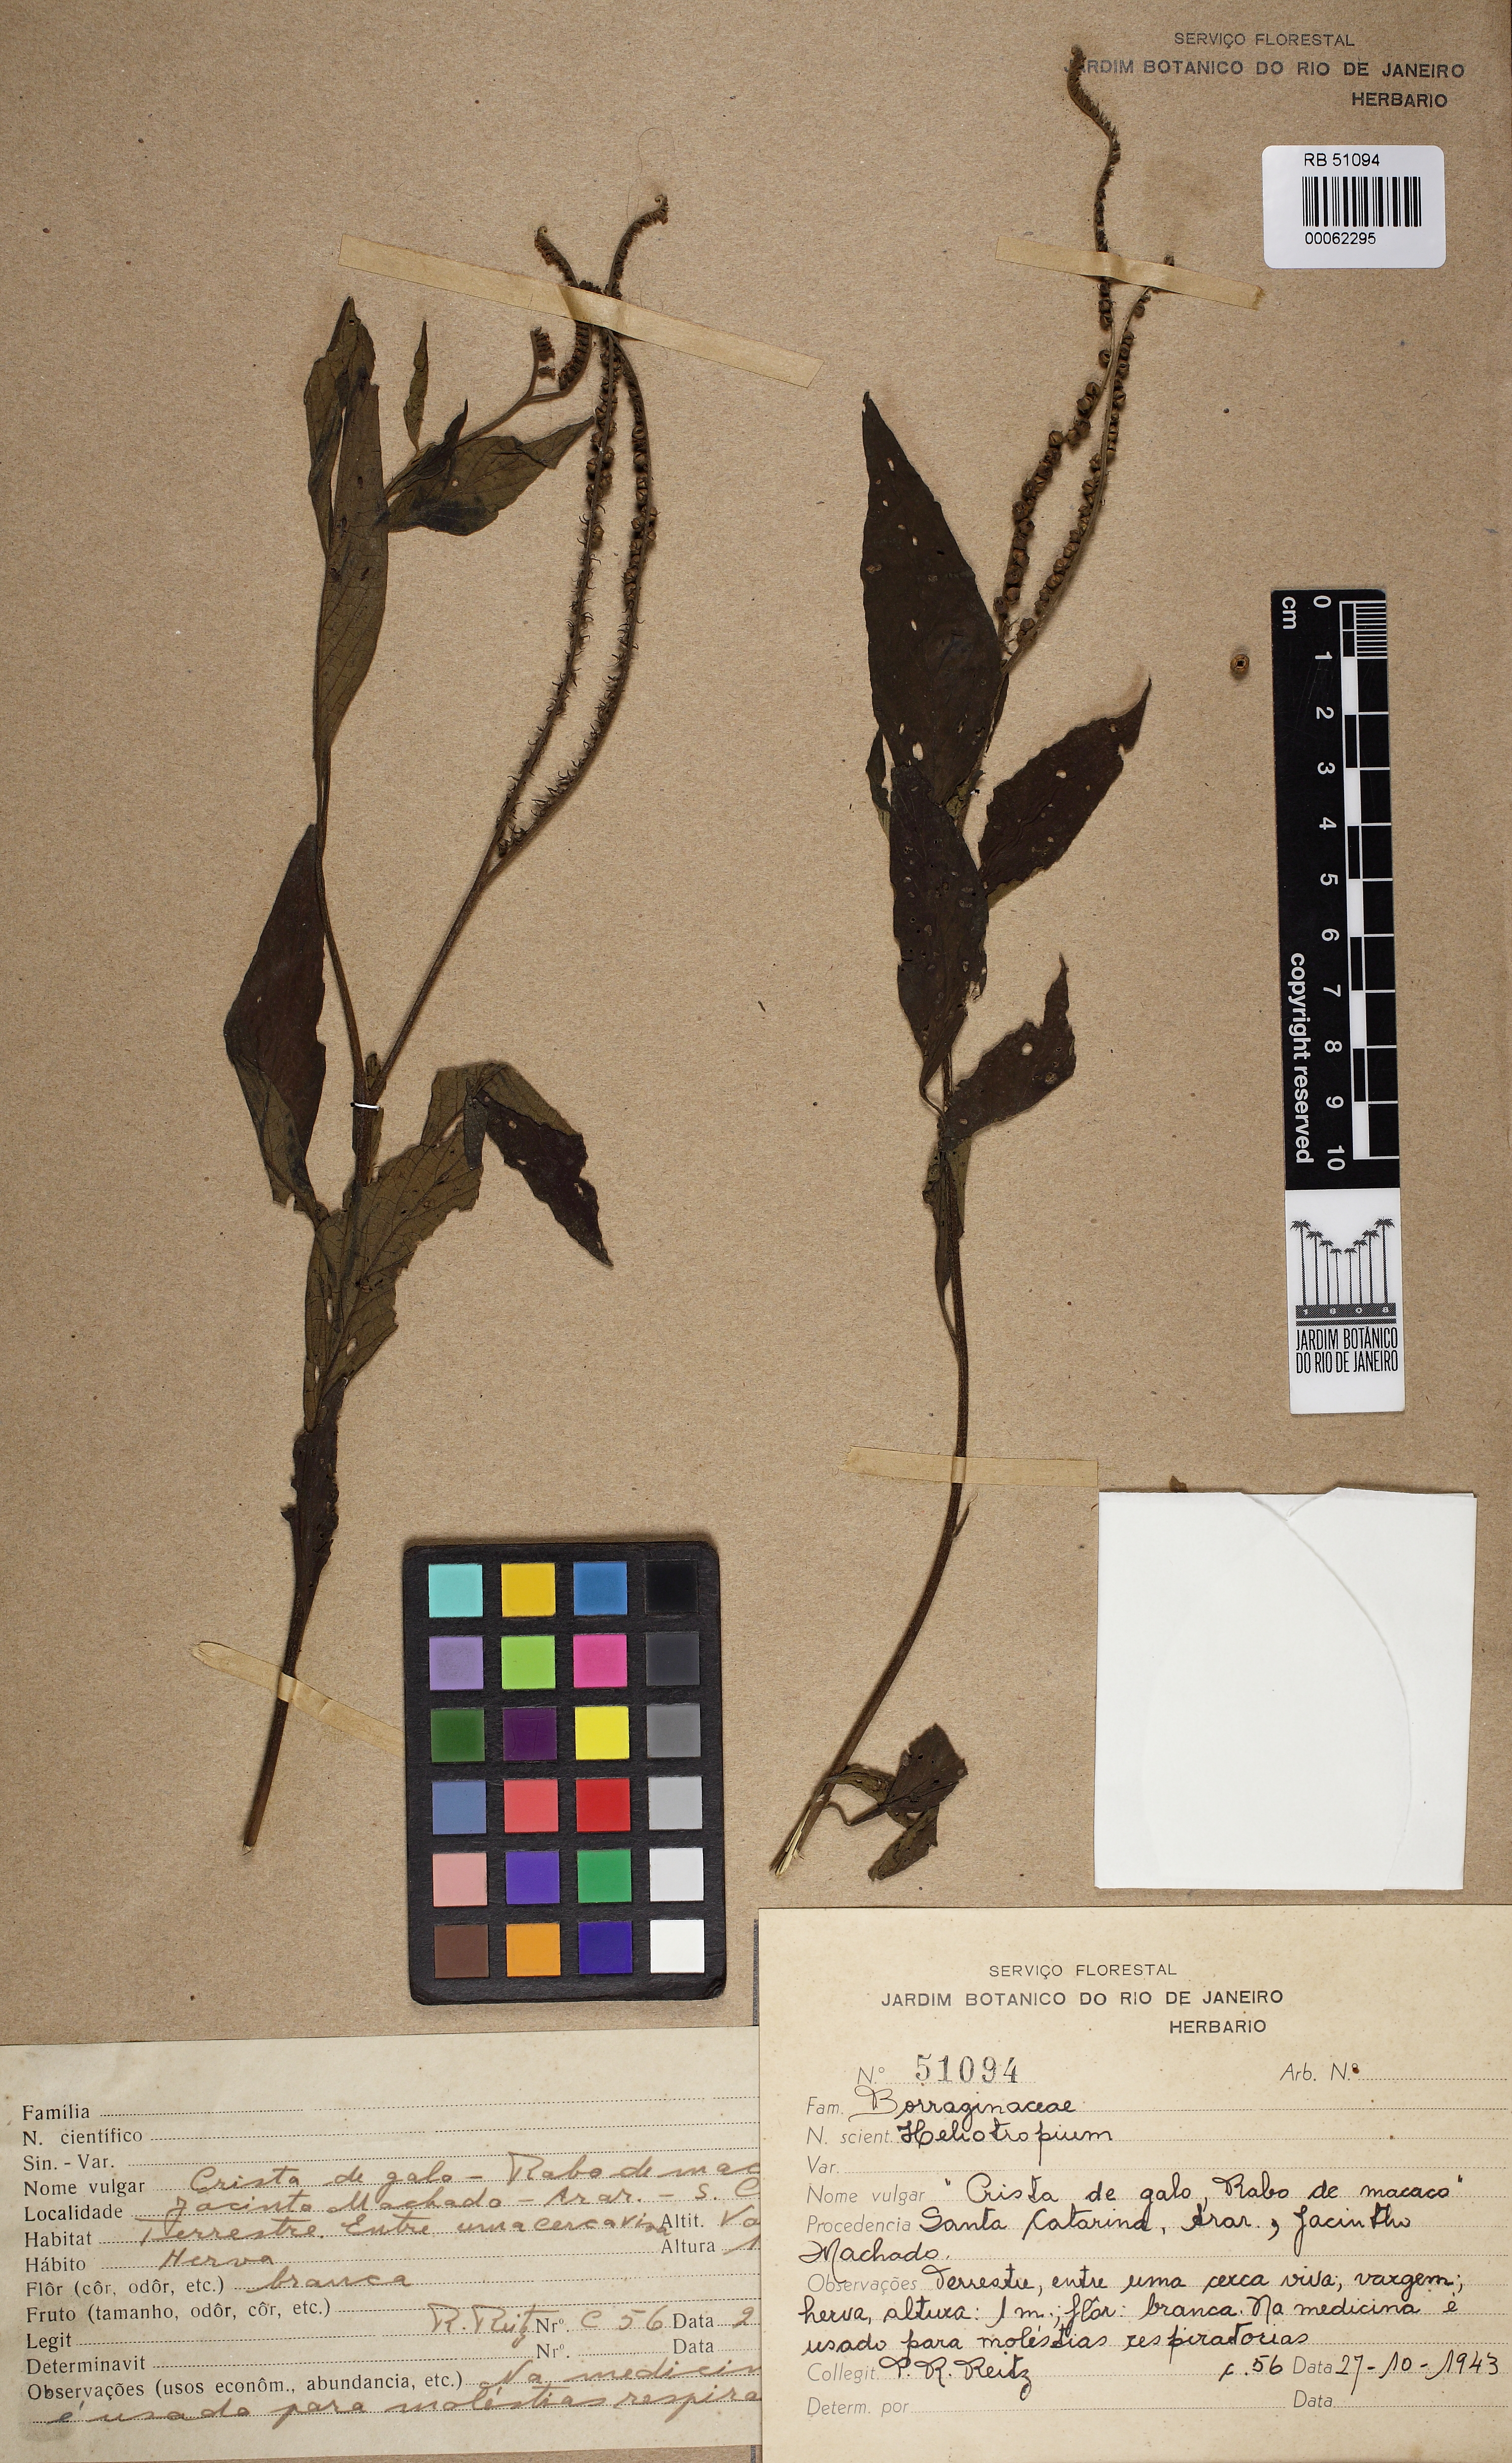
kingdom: Plantae
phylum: Tracheophyta
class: Magnoliopsida
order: Boraginales
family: Heliotropiaceae
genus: Heliotropium
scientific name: Heliotropium transalpinum
